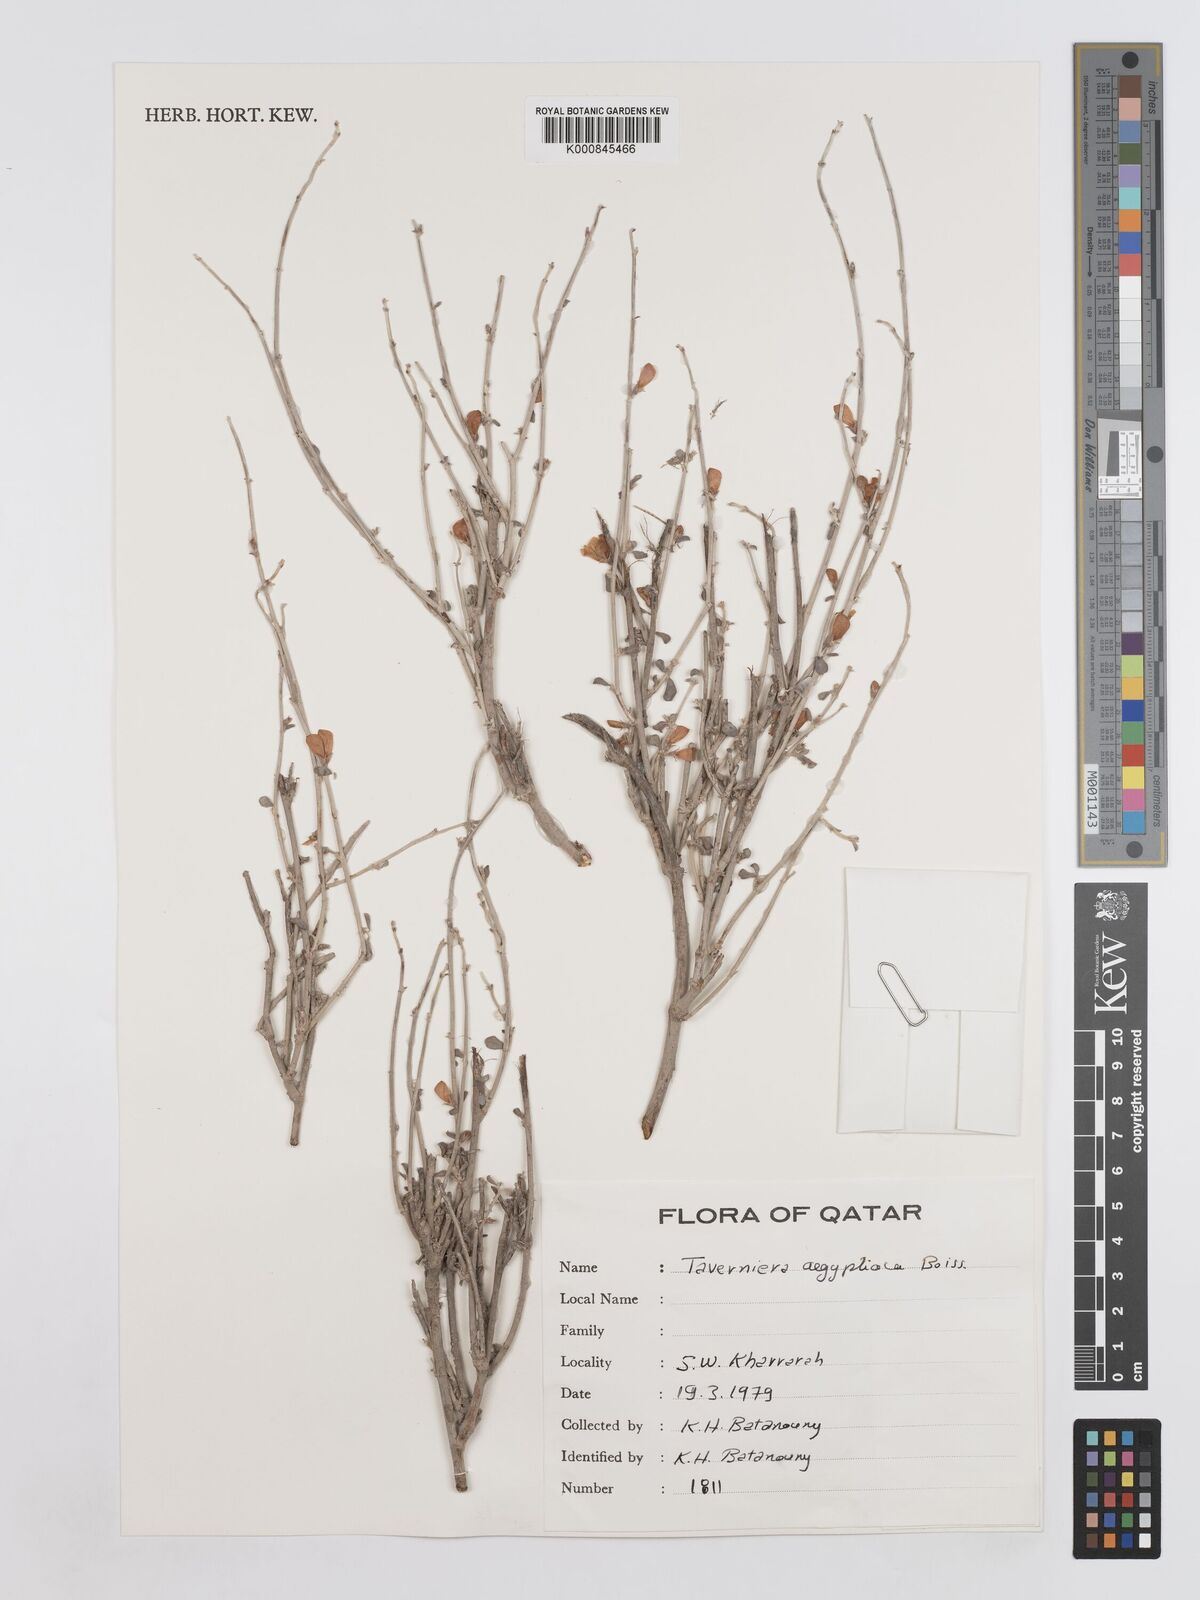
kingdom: Plantae
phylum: Tracheophyta
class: Magnoliopsida
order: Fabales
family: Fabaceae
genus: Taverniera
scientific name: Taverniera aegyptiaca
